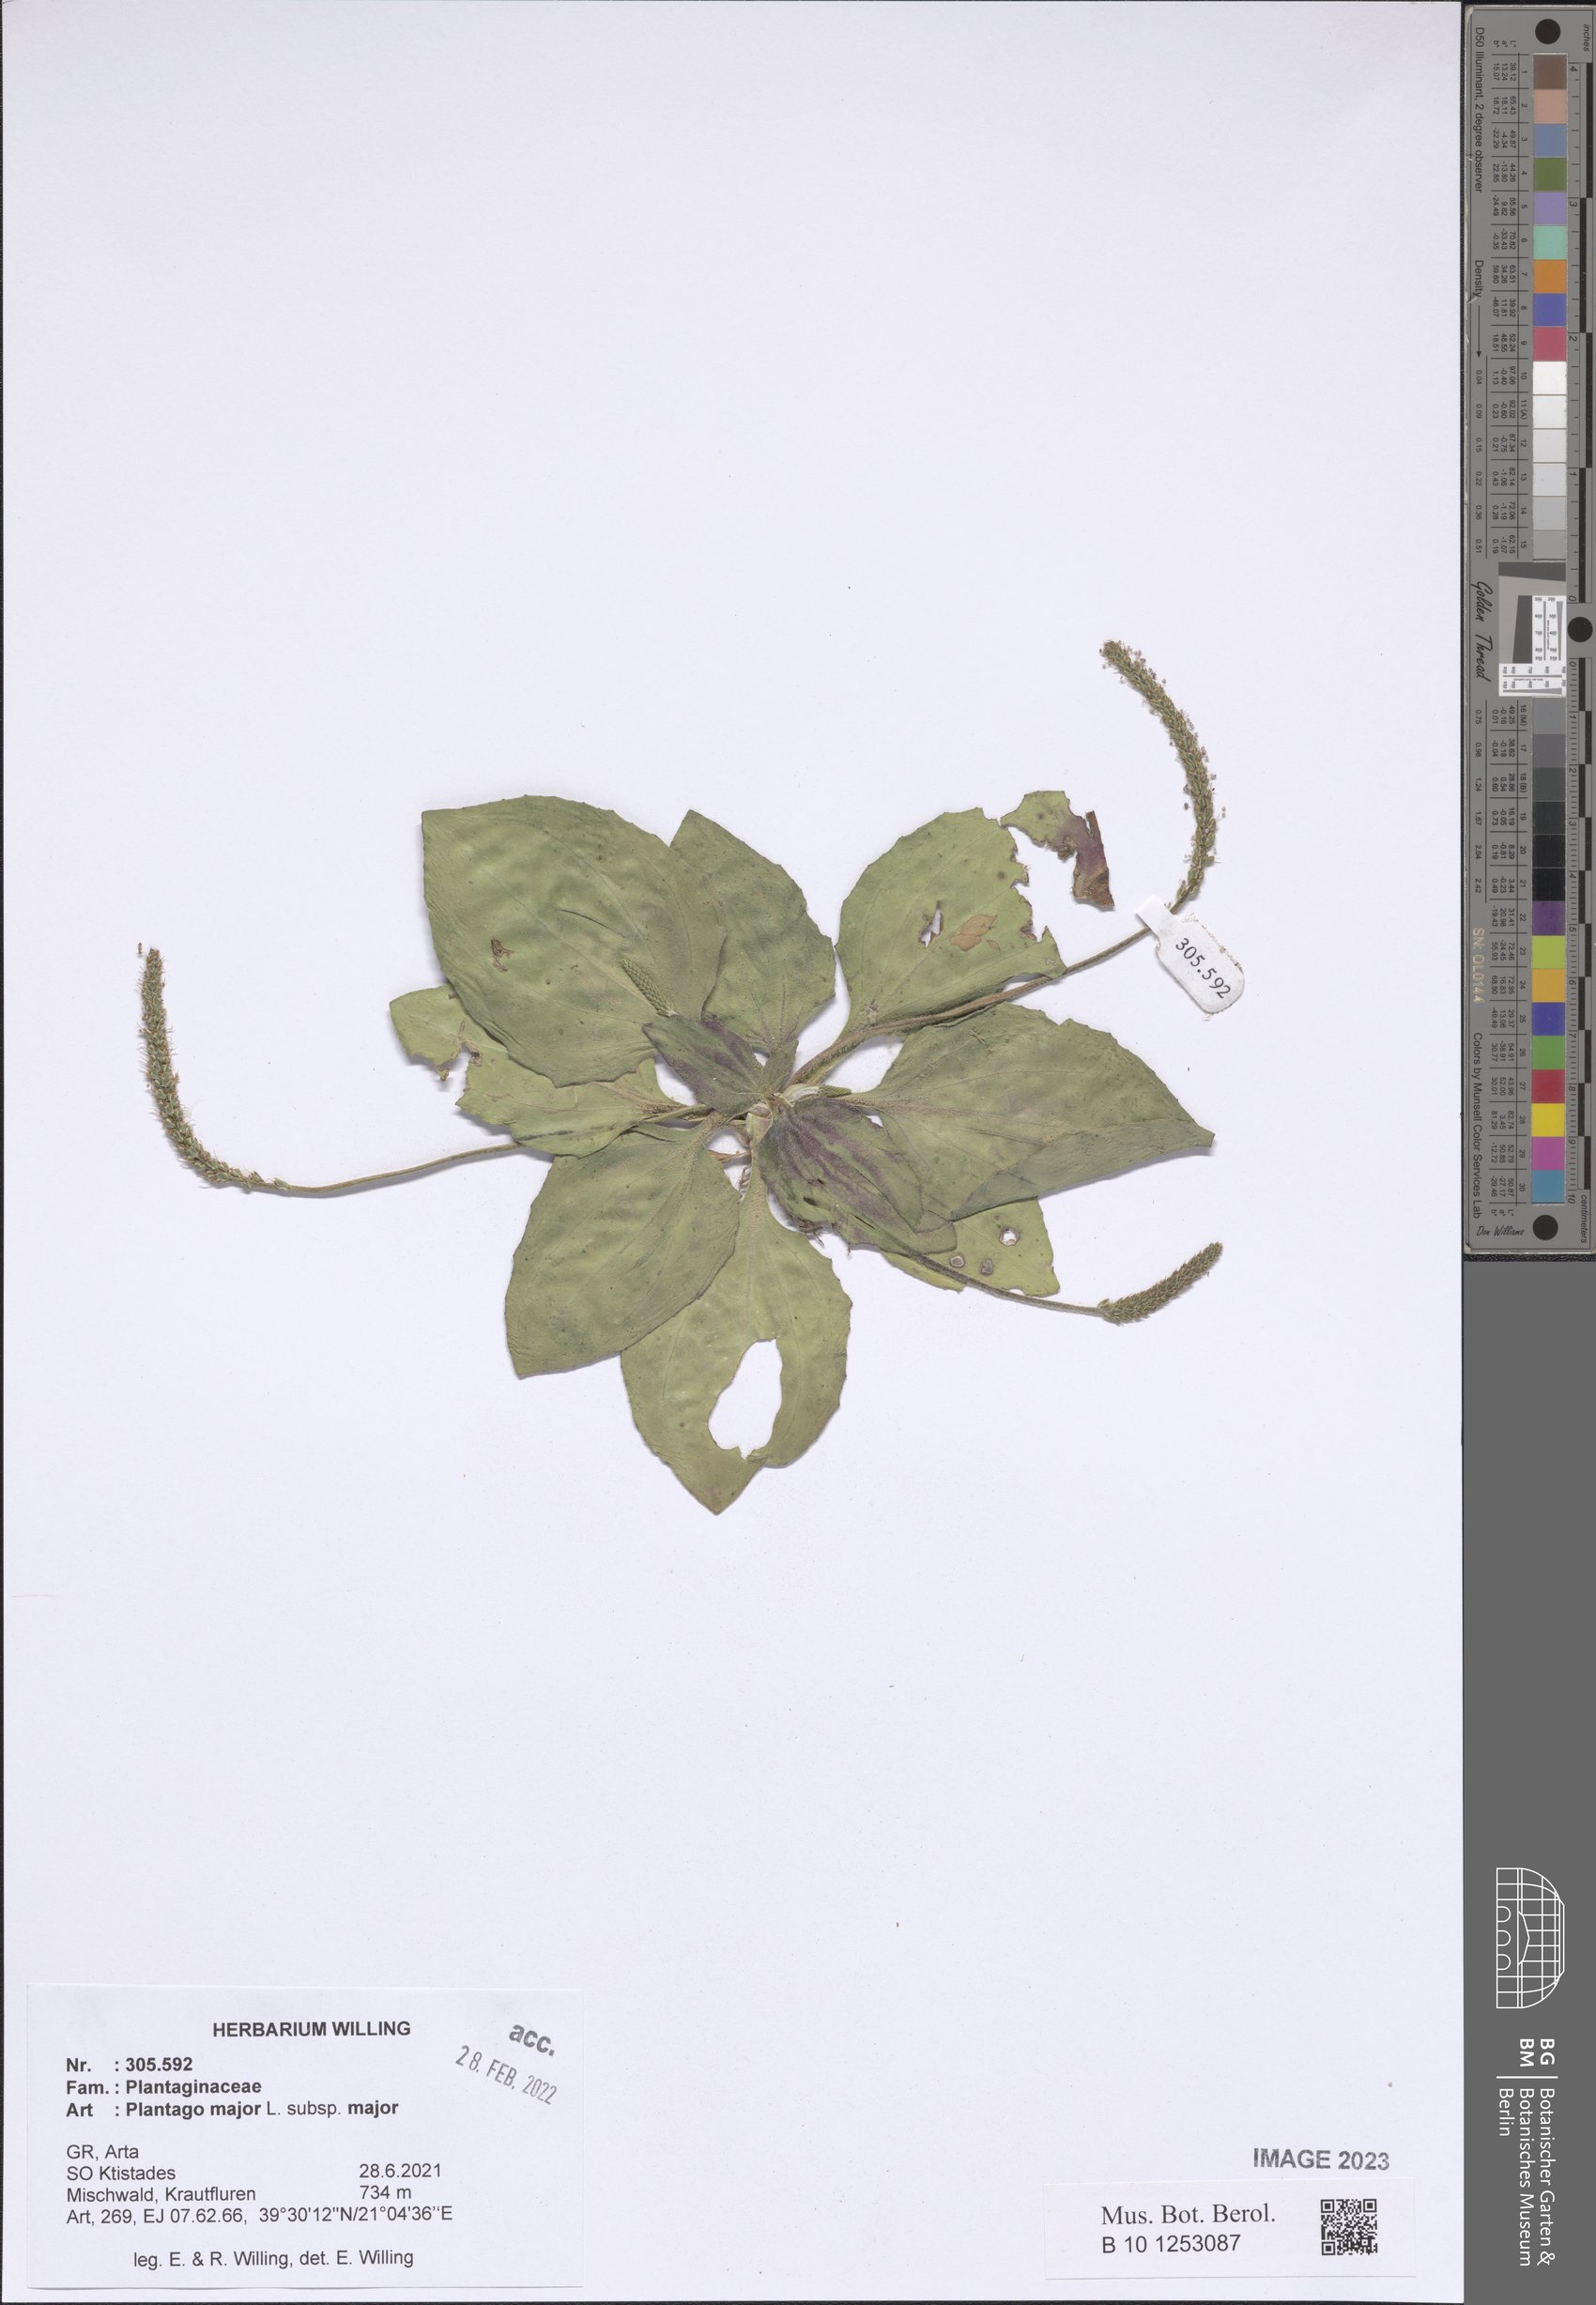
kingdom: Plantae
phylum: Tracheophyta
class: Magnoliopsida
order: Lamiales
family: Plantaginaceae
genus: Plantago
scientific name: Plantago major
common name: Common plantain
